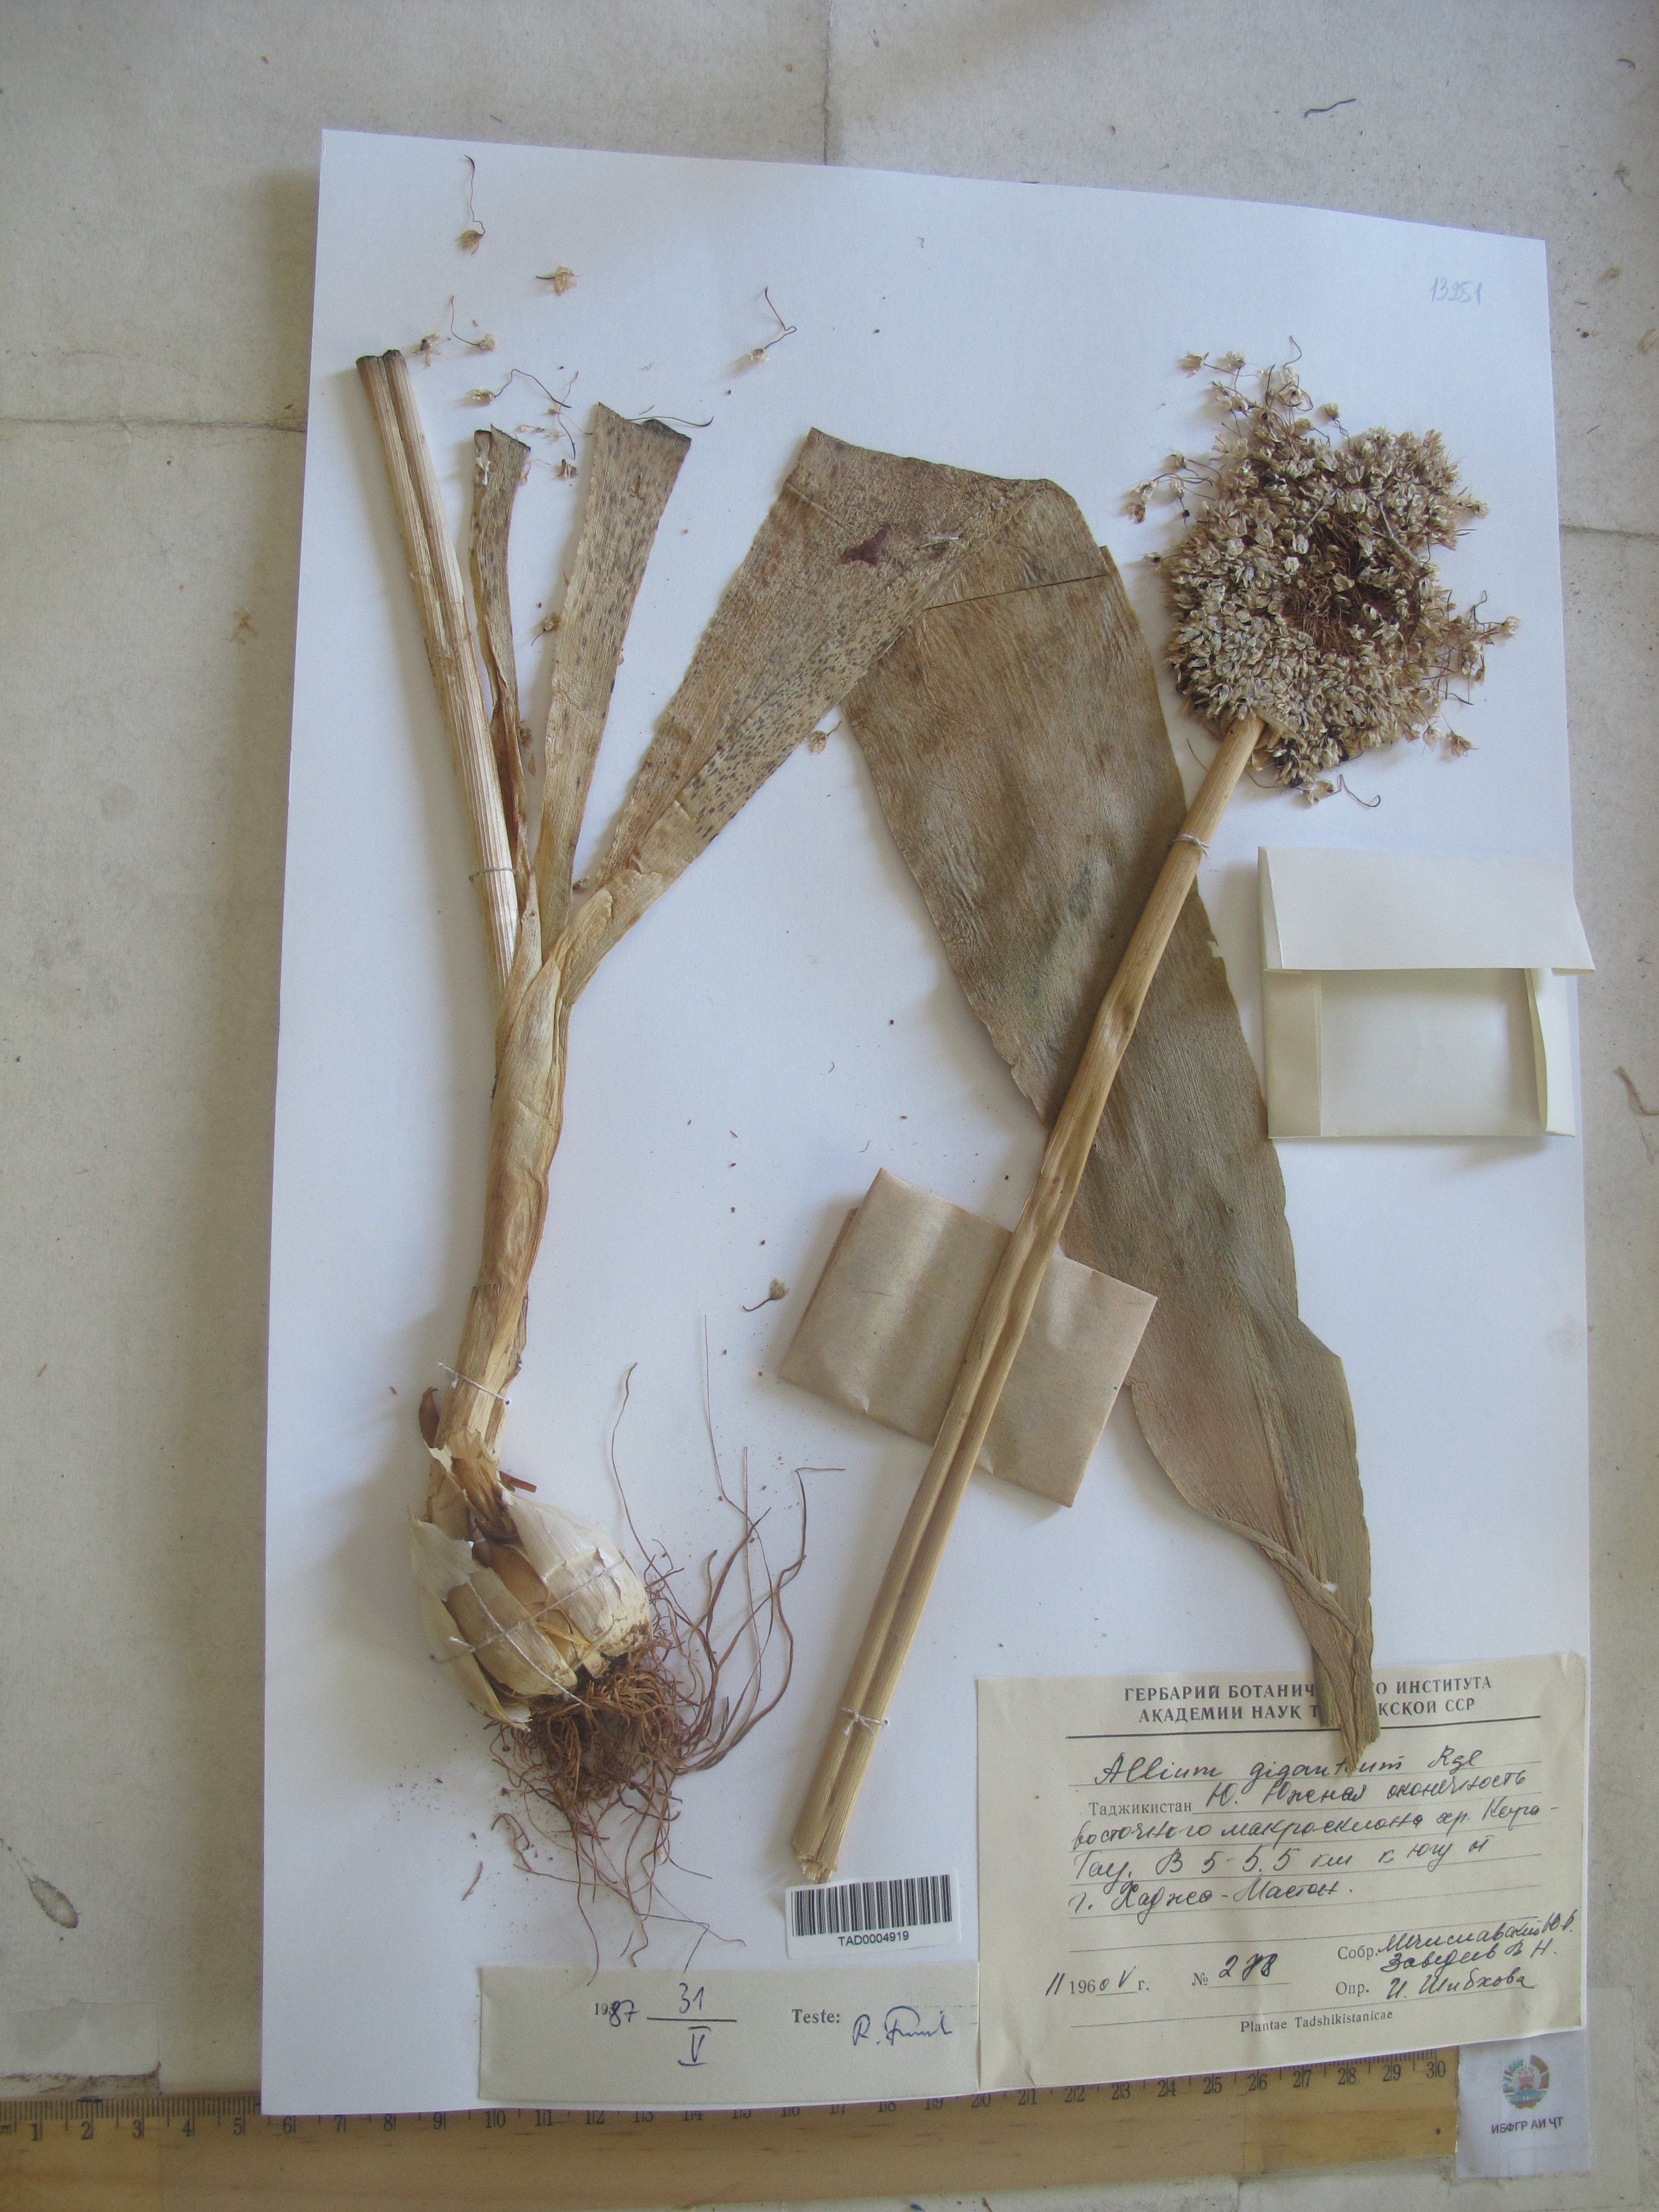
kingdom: Plantae
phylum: Tracheophyta
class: Liliopsida
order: Asparagales
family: Amaryllidaceae
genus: Allium
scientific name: Allium giganteum
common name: Giant onion
